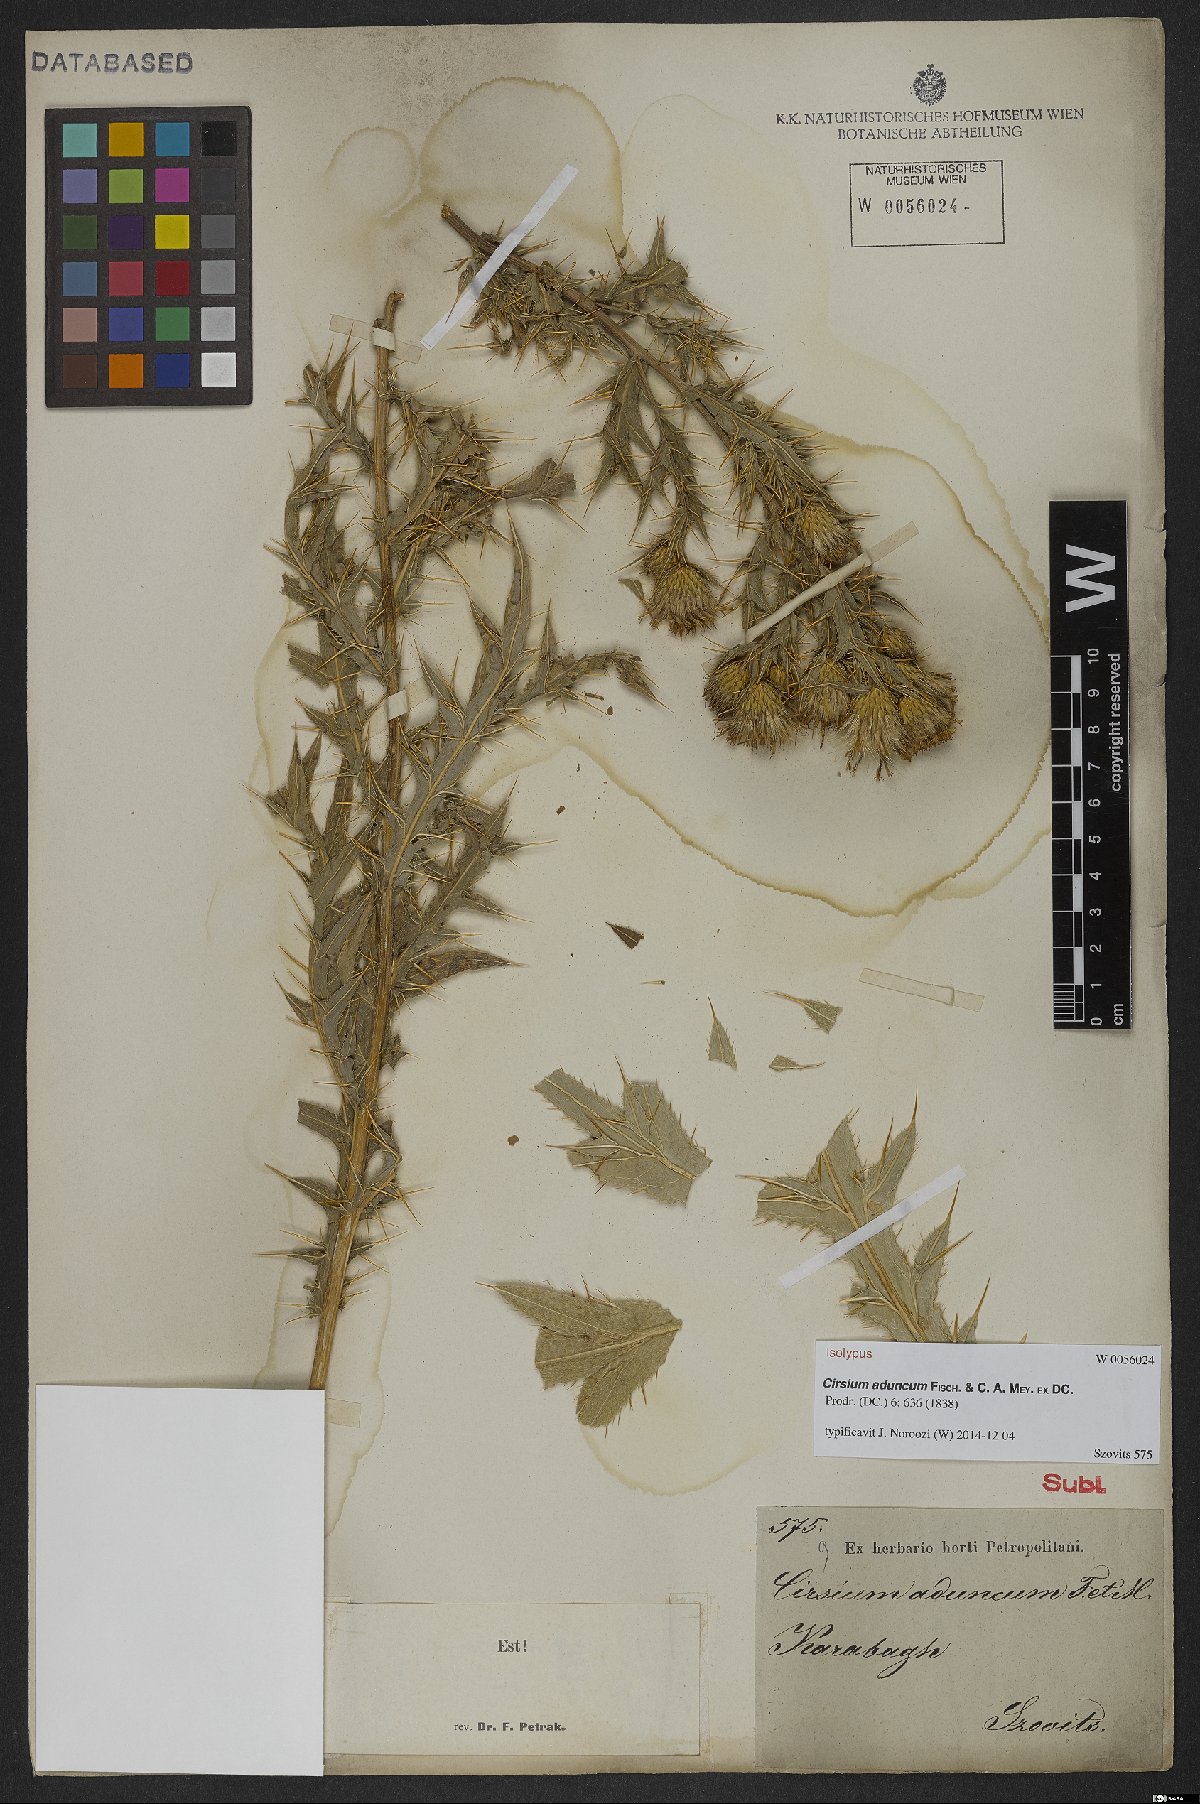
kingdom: Plantae
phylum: Tracheophyta
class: Magnoliopsida
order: Asterales
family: Asteraceae
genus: Lophiolepis
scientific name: Lophiolepis adunca
